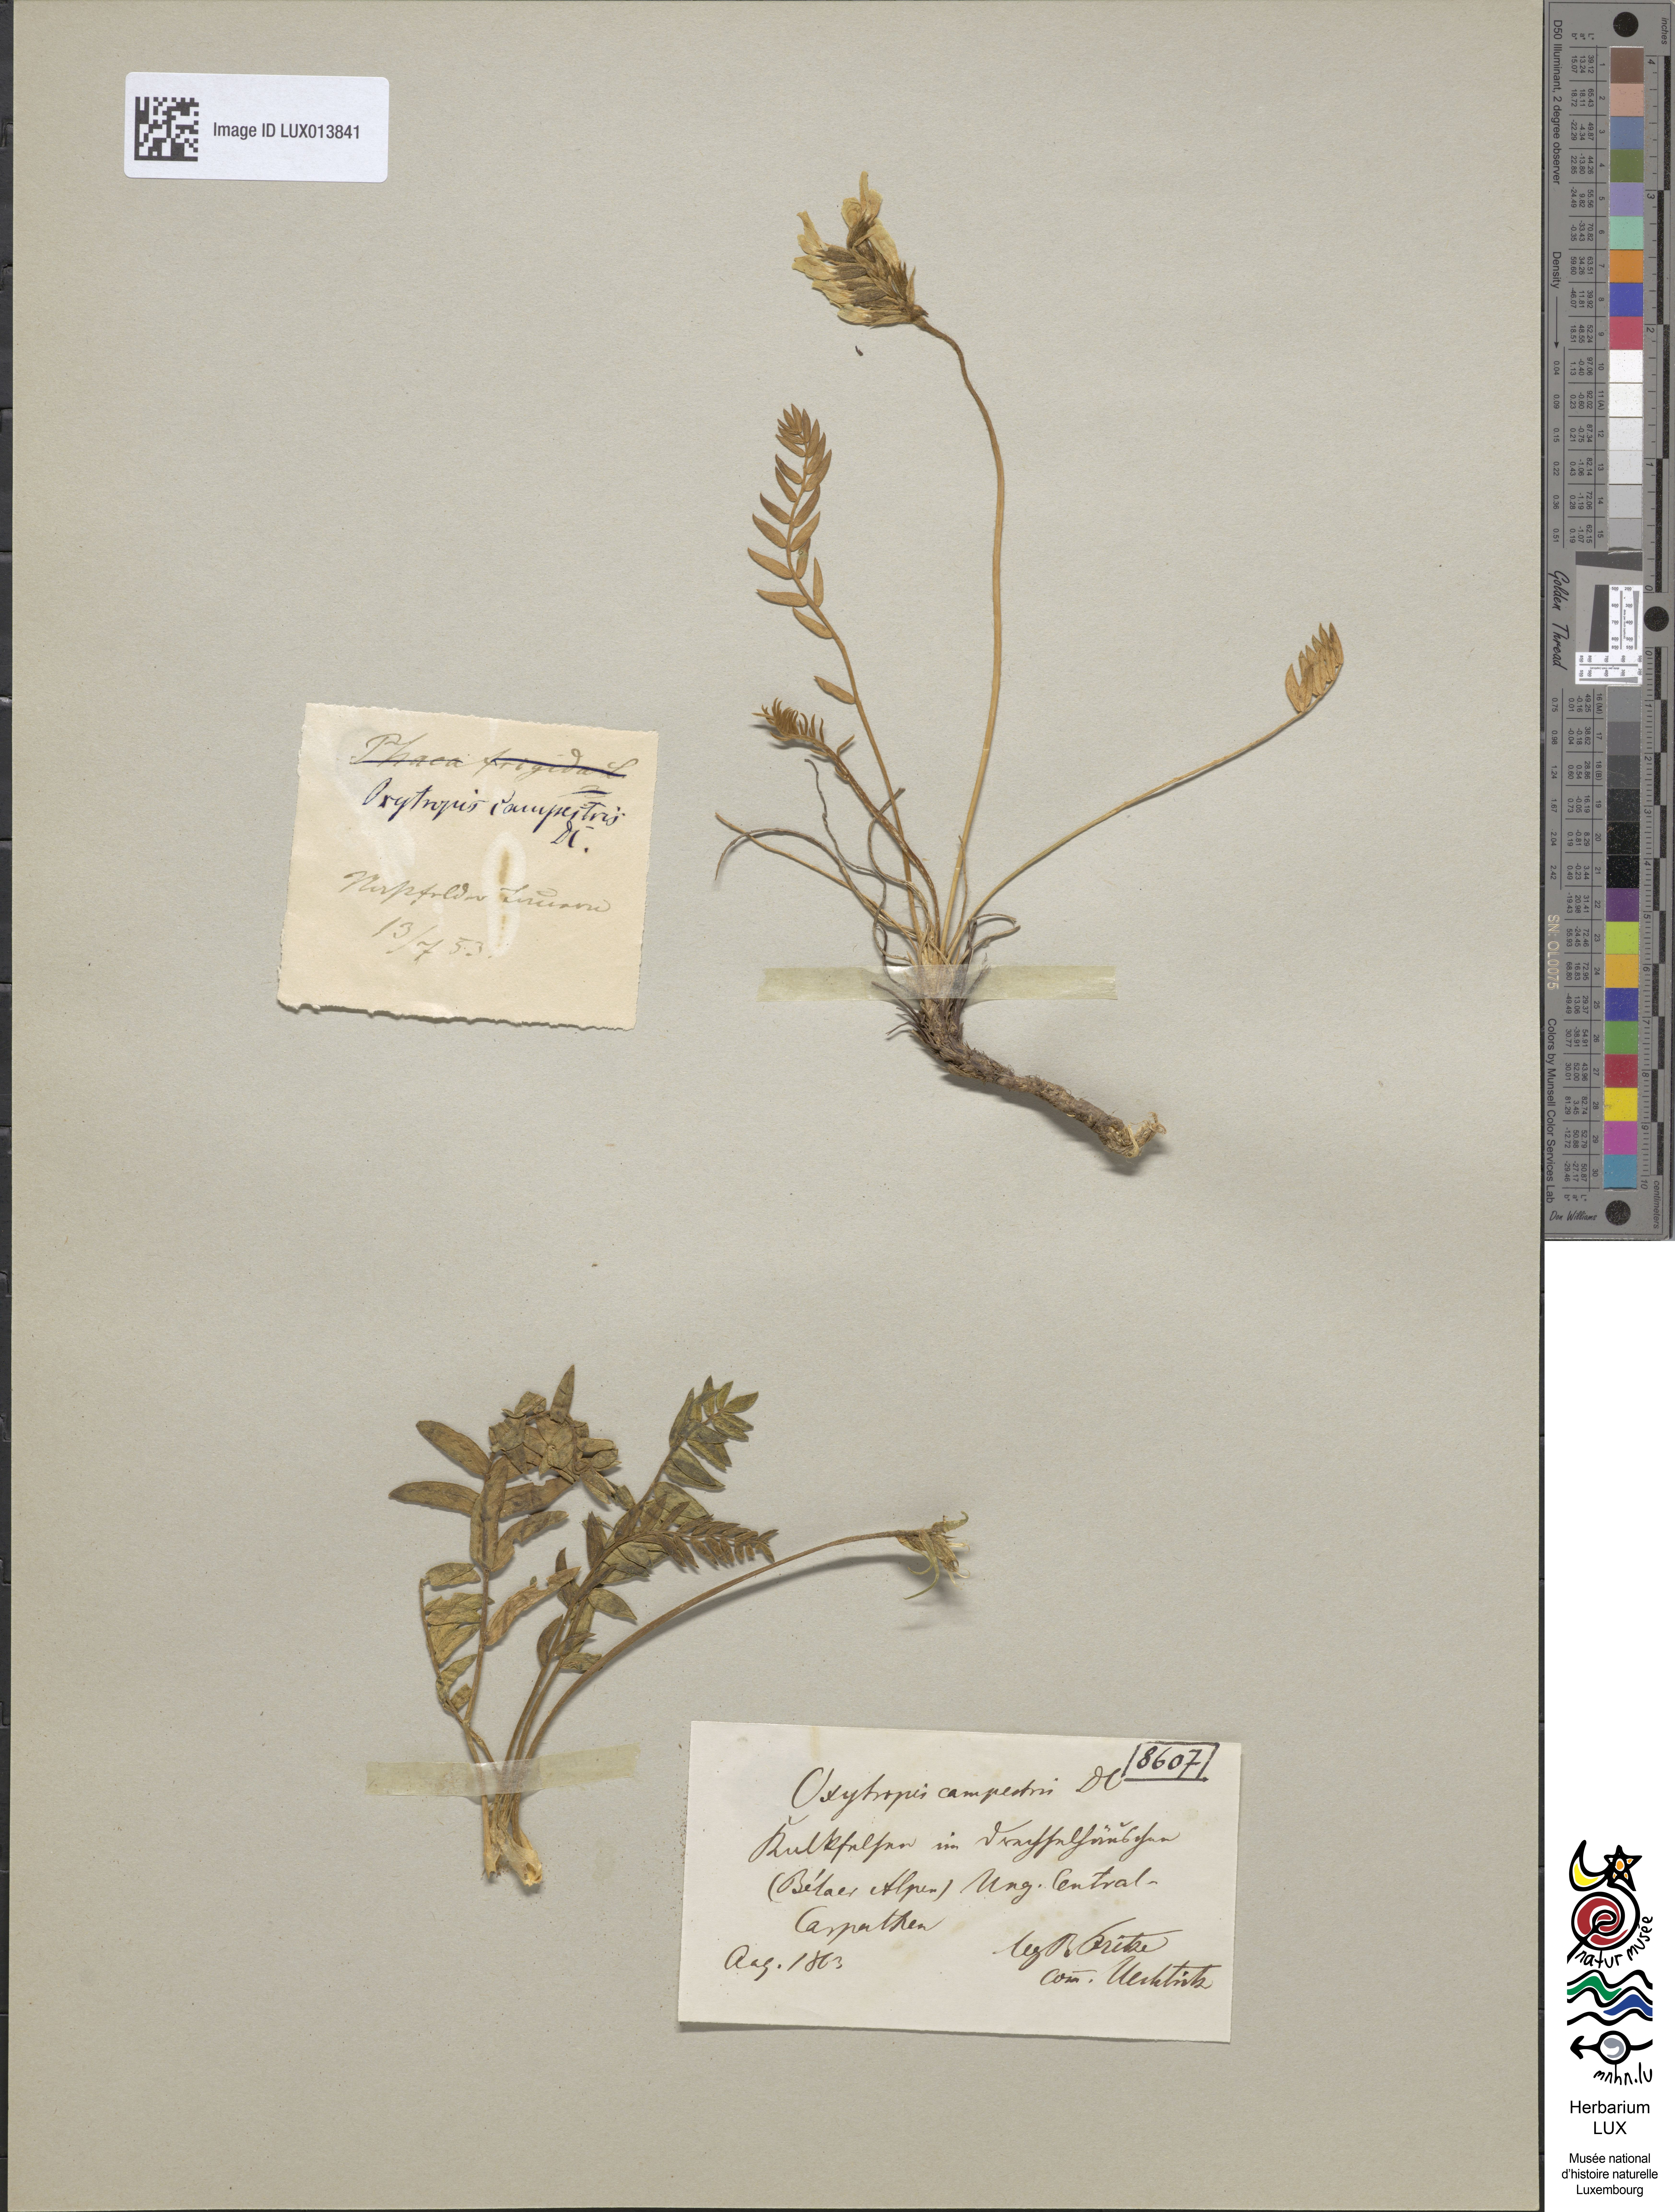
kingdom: Plantae
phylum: Tracheophyta
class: Magnoliopsida
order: Fabales
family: Fabaceae
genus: Oxytropis
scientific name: Oxytropis campestris
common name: Field locoweed
